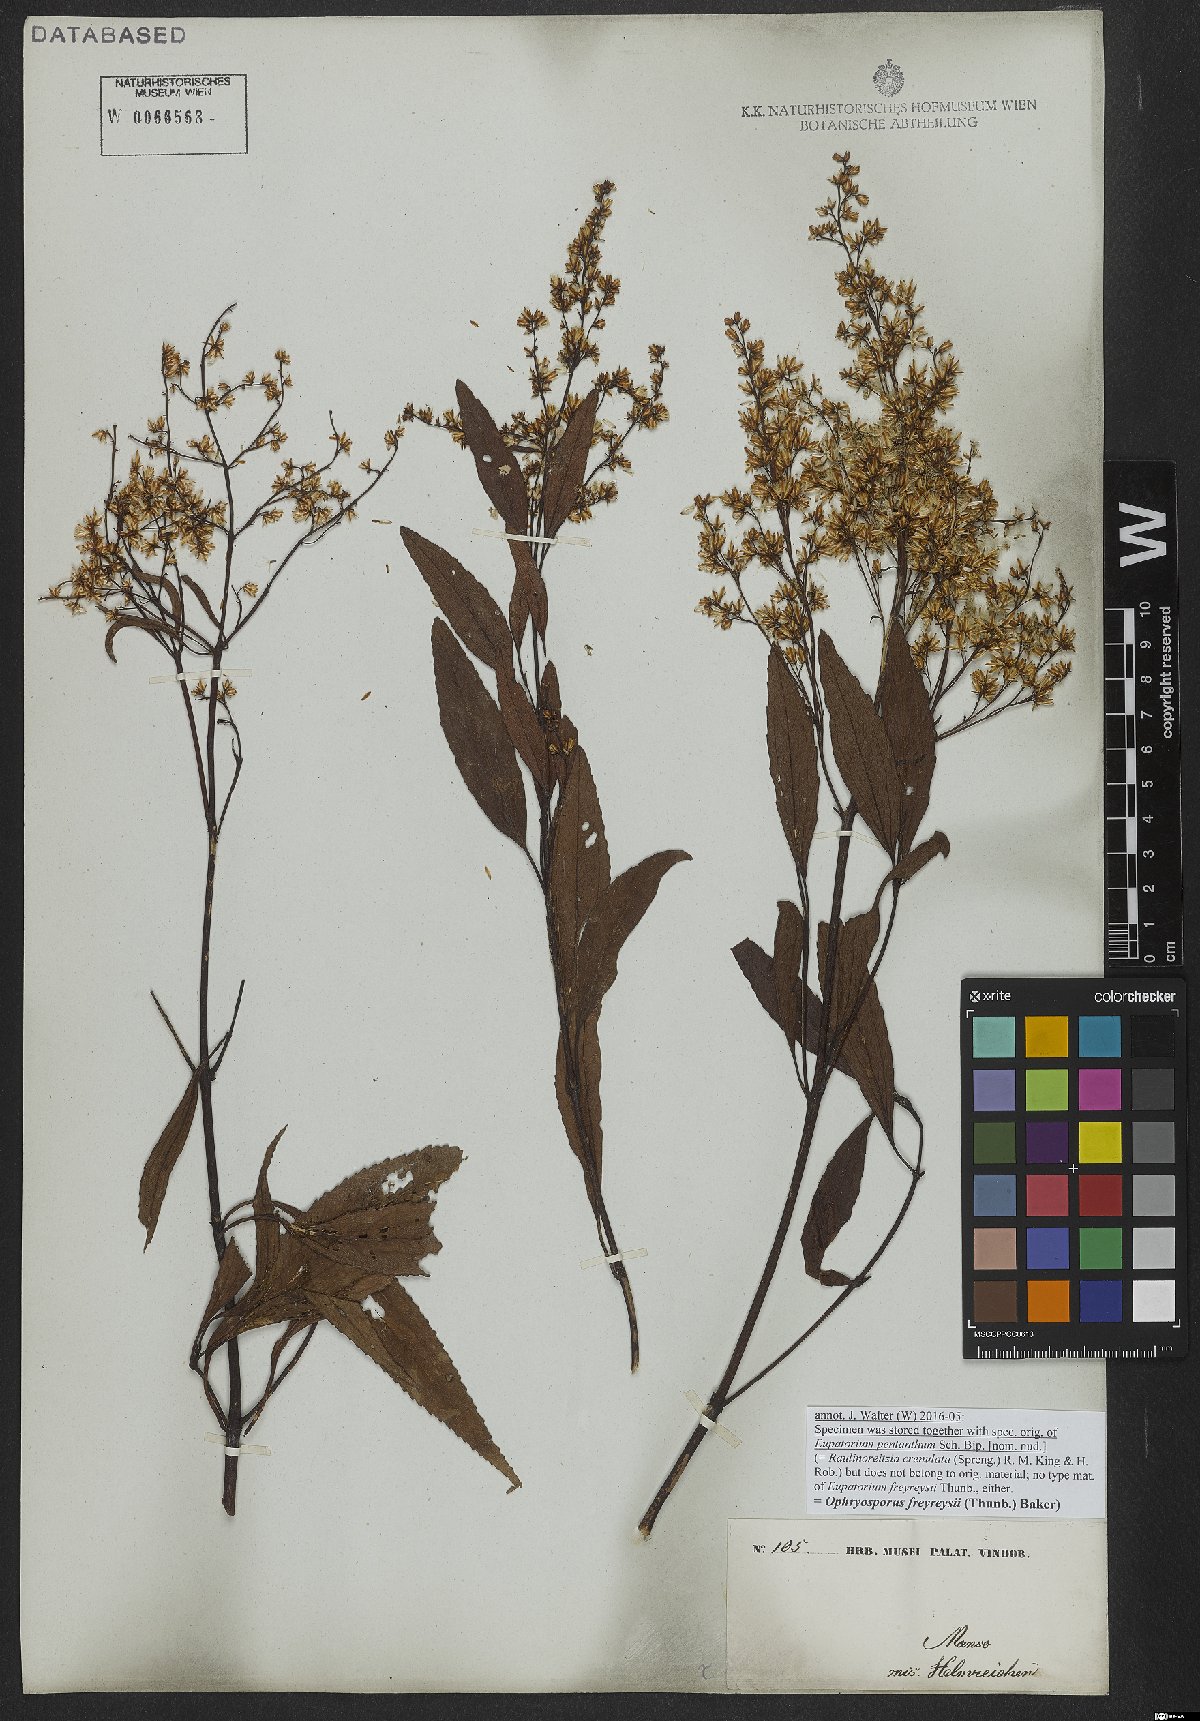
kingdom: Plantae
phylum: Tracheophyta
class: Magnoliopsida
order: Asterales
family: Asteraceae
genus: Ophryosporus
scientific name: Ophryosporus freyreysi
